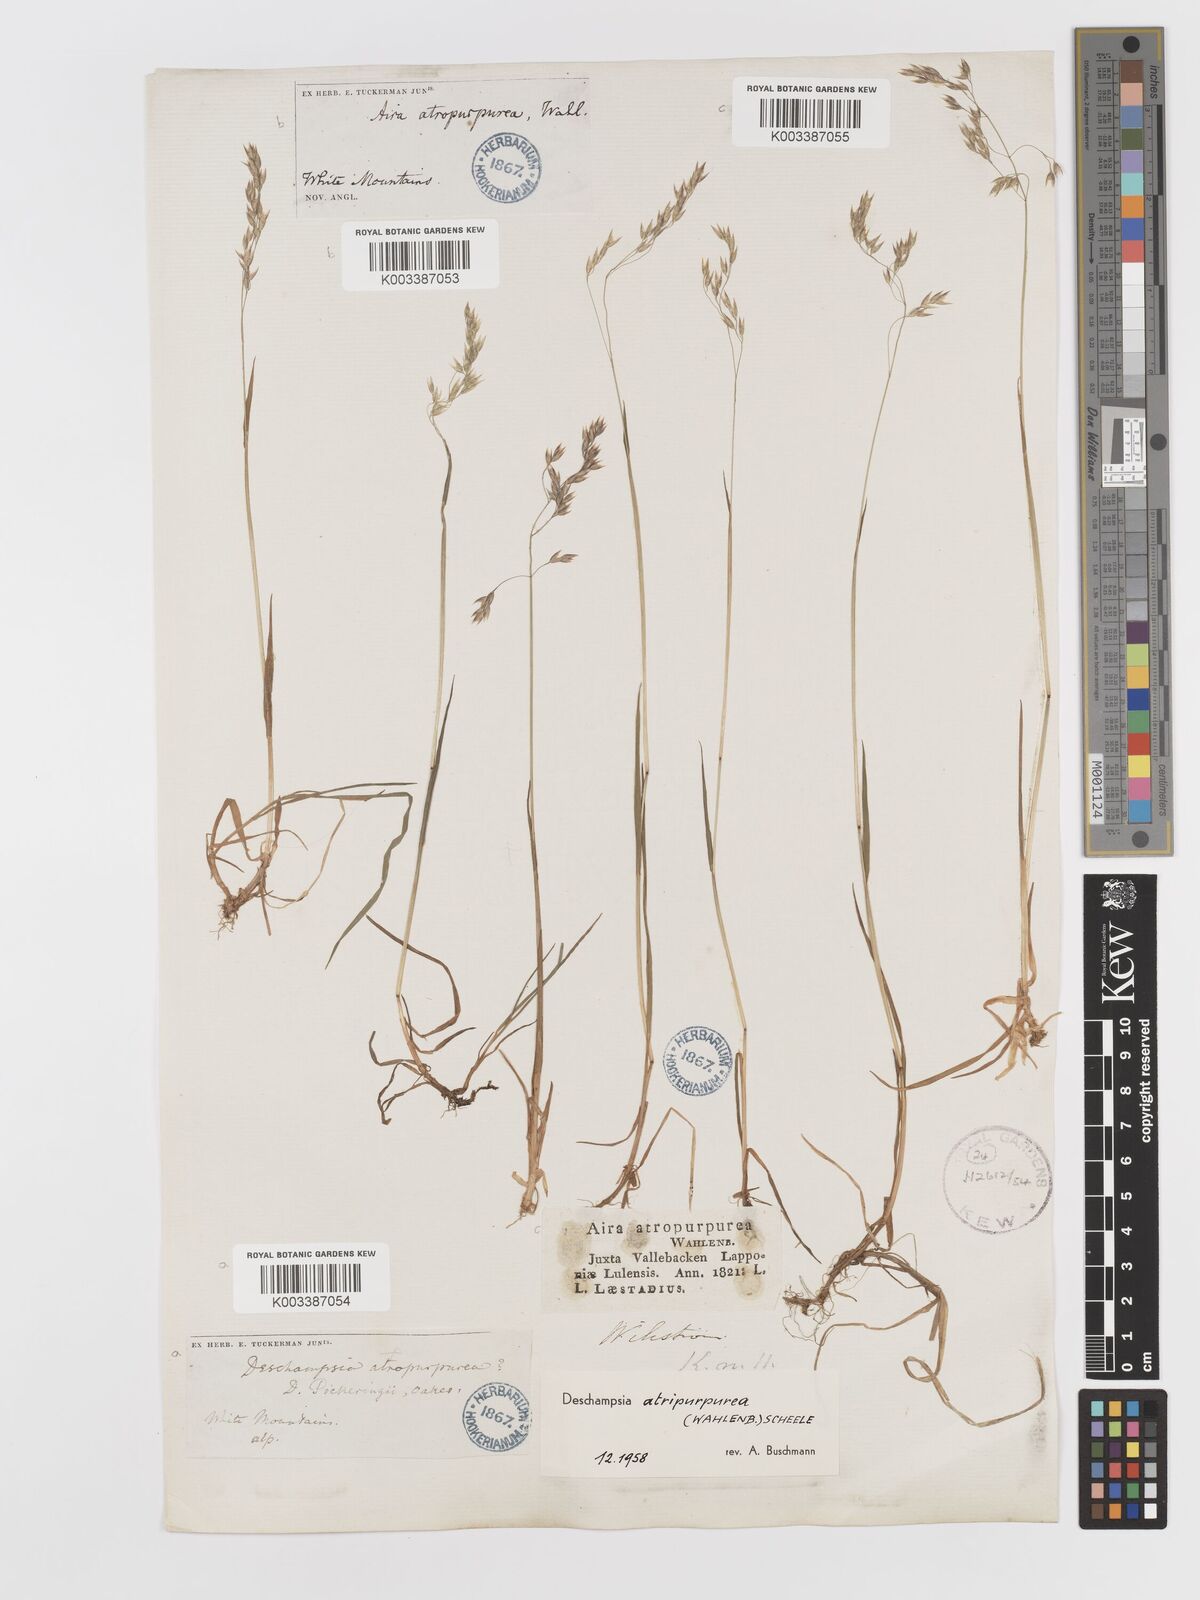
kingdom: Plantae
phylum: Tracheophyta
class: Liliopsida
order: Poales
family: Poaceae
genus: Vahlodea
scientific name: Vahlodea atropurpurea
